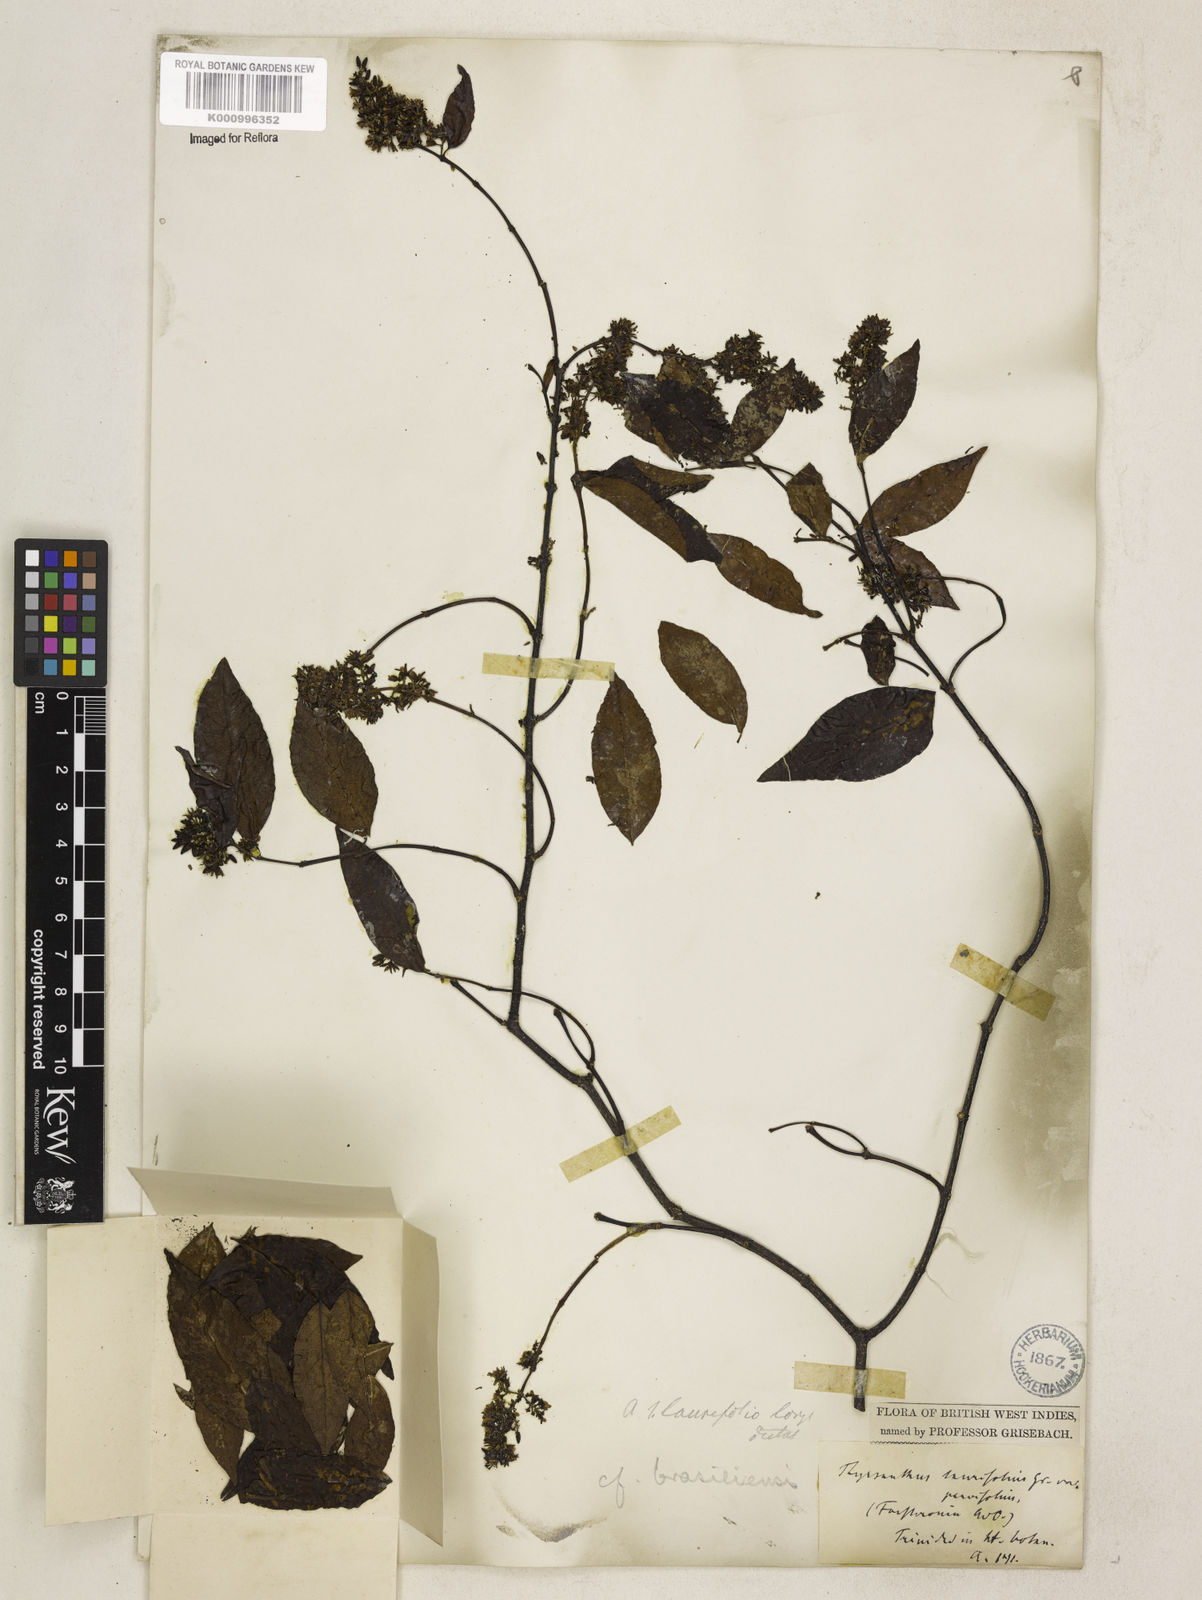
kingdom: Plantae
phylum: Tracheophyta
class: Magnoliopsida
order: Gentianales
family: Apocynaceae
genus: Forsteronia
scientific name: Forsteronia leptocarpa
